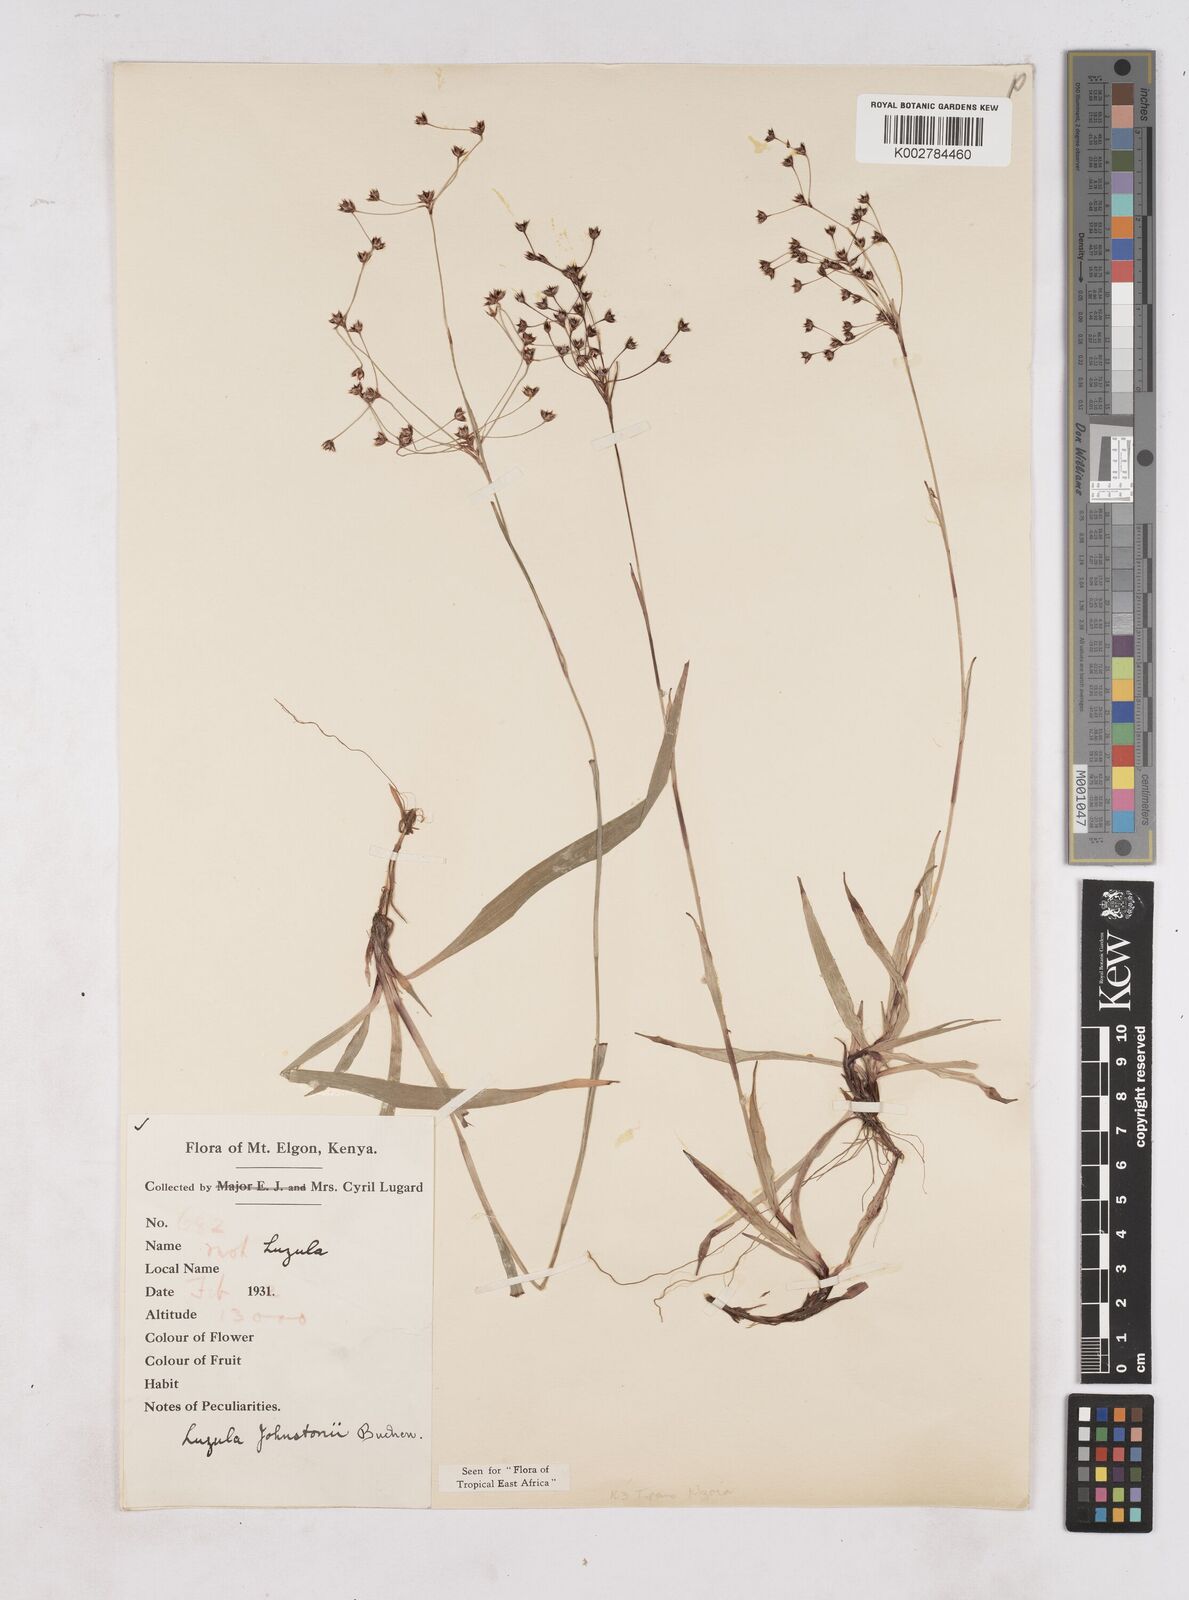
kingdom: Plantae
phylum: Tracheophyta
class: Liliopsida
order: Poales
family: Juncaceae
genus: Luzula
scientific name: Luzula johnstonii
